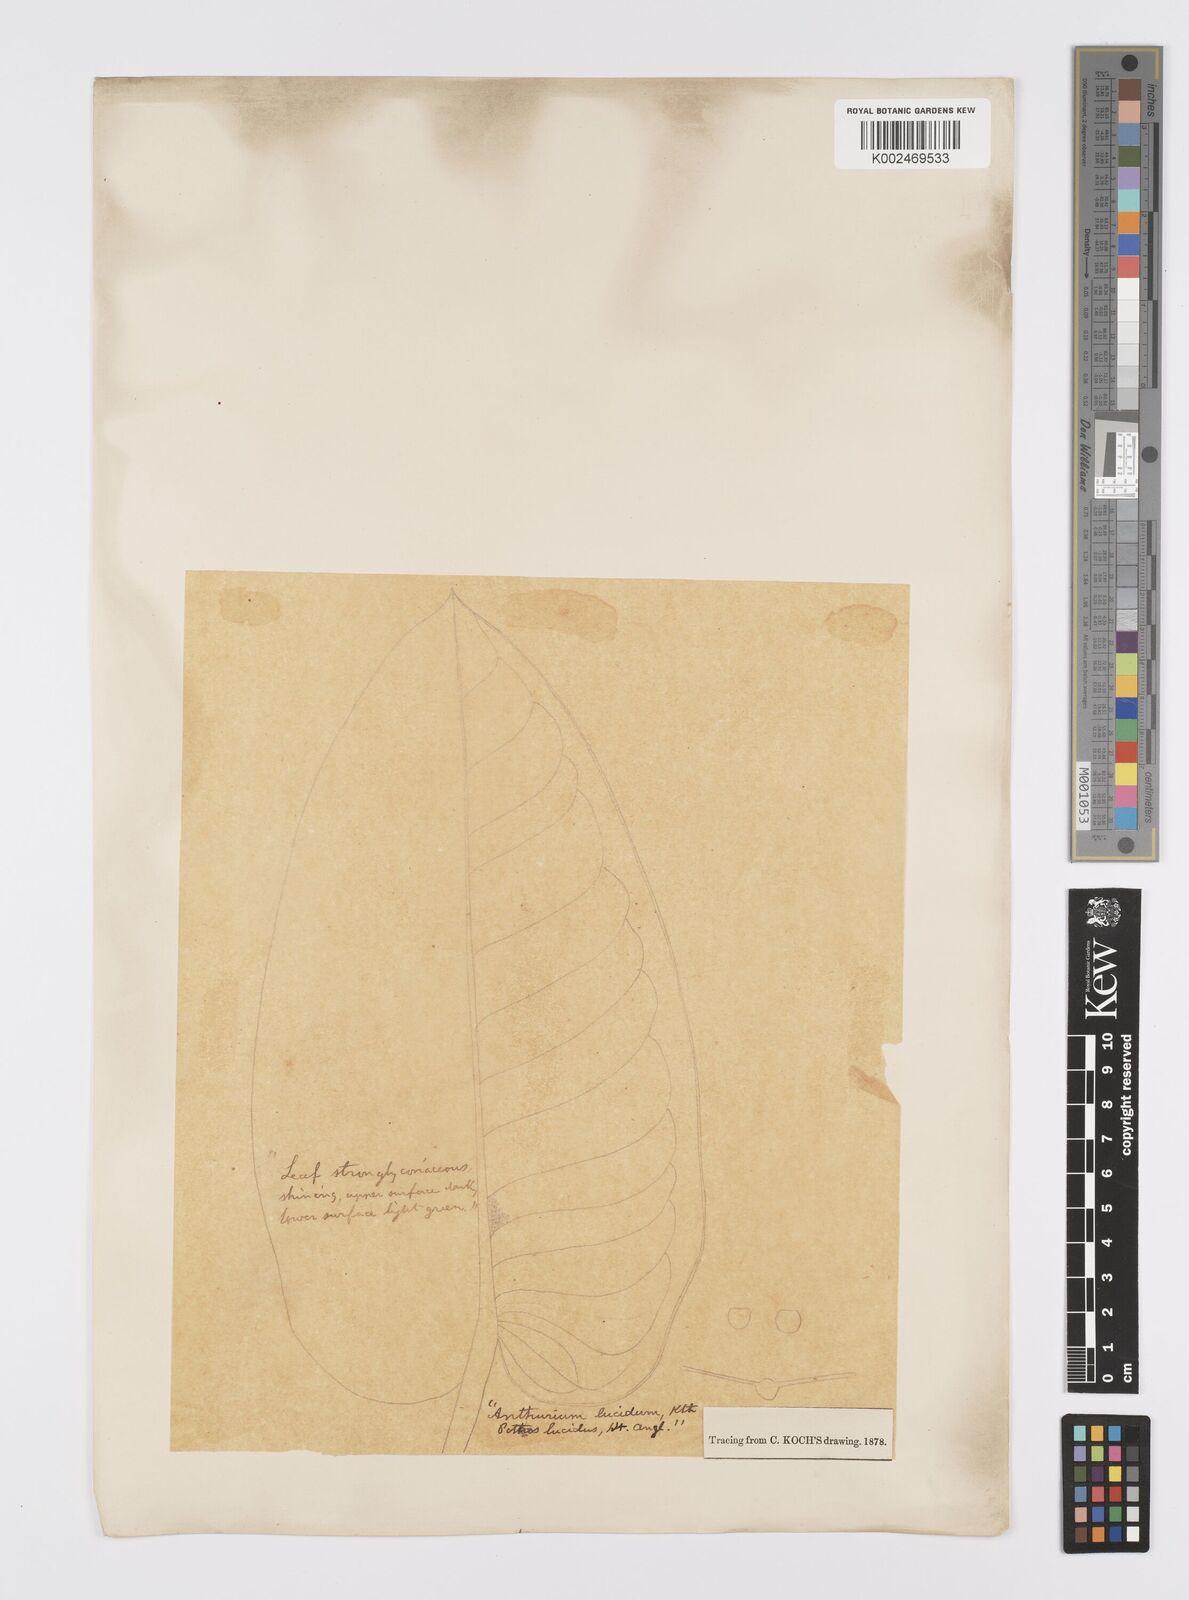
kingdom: Plantae
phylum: Tracheophyta
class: Liliopsida
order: Alismatales
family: Araceae
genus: Anthurium
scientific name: Anthurium lucidum
